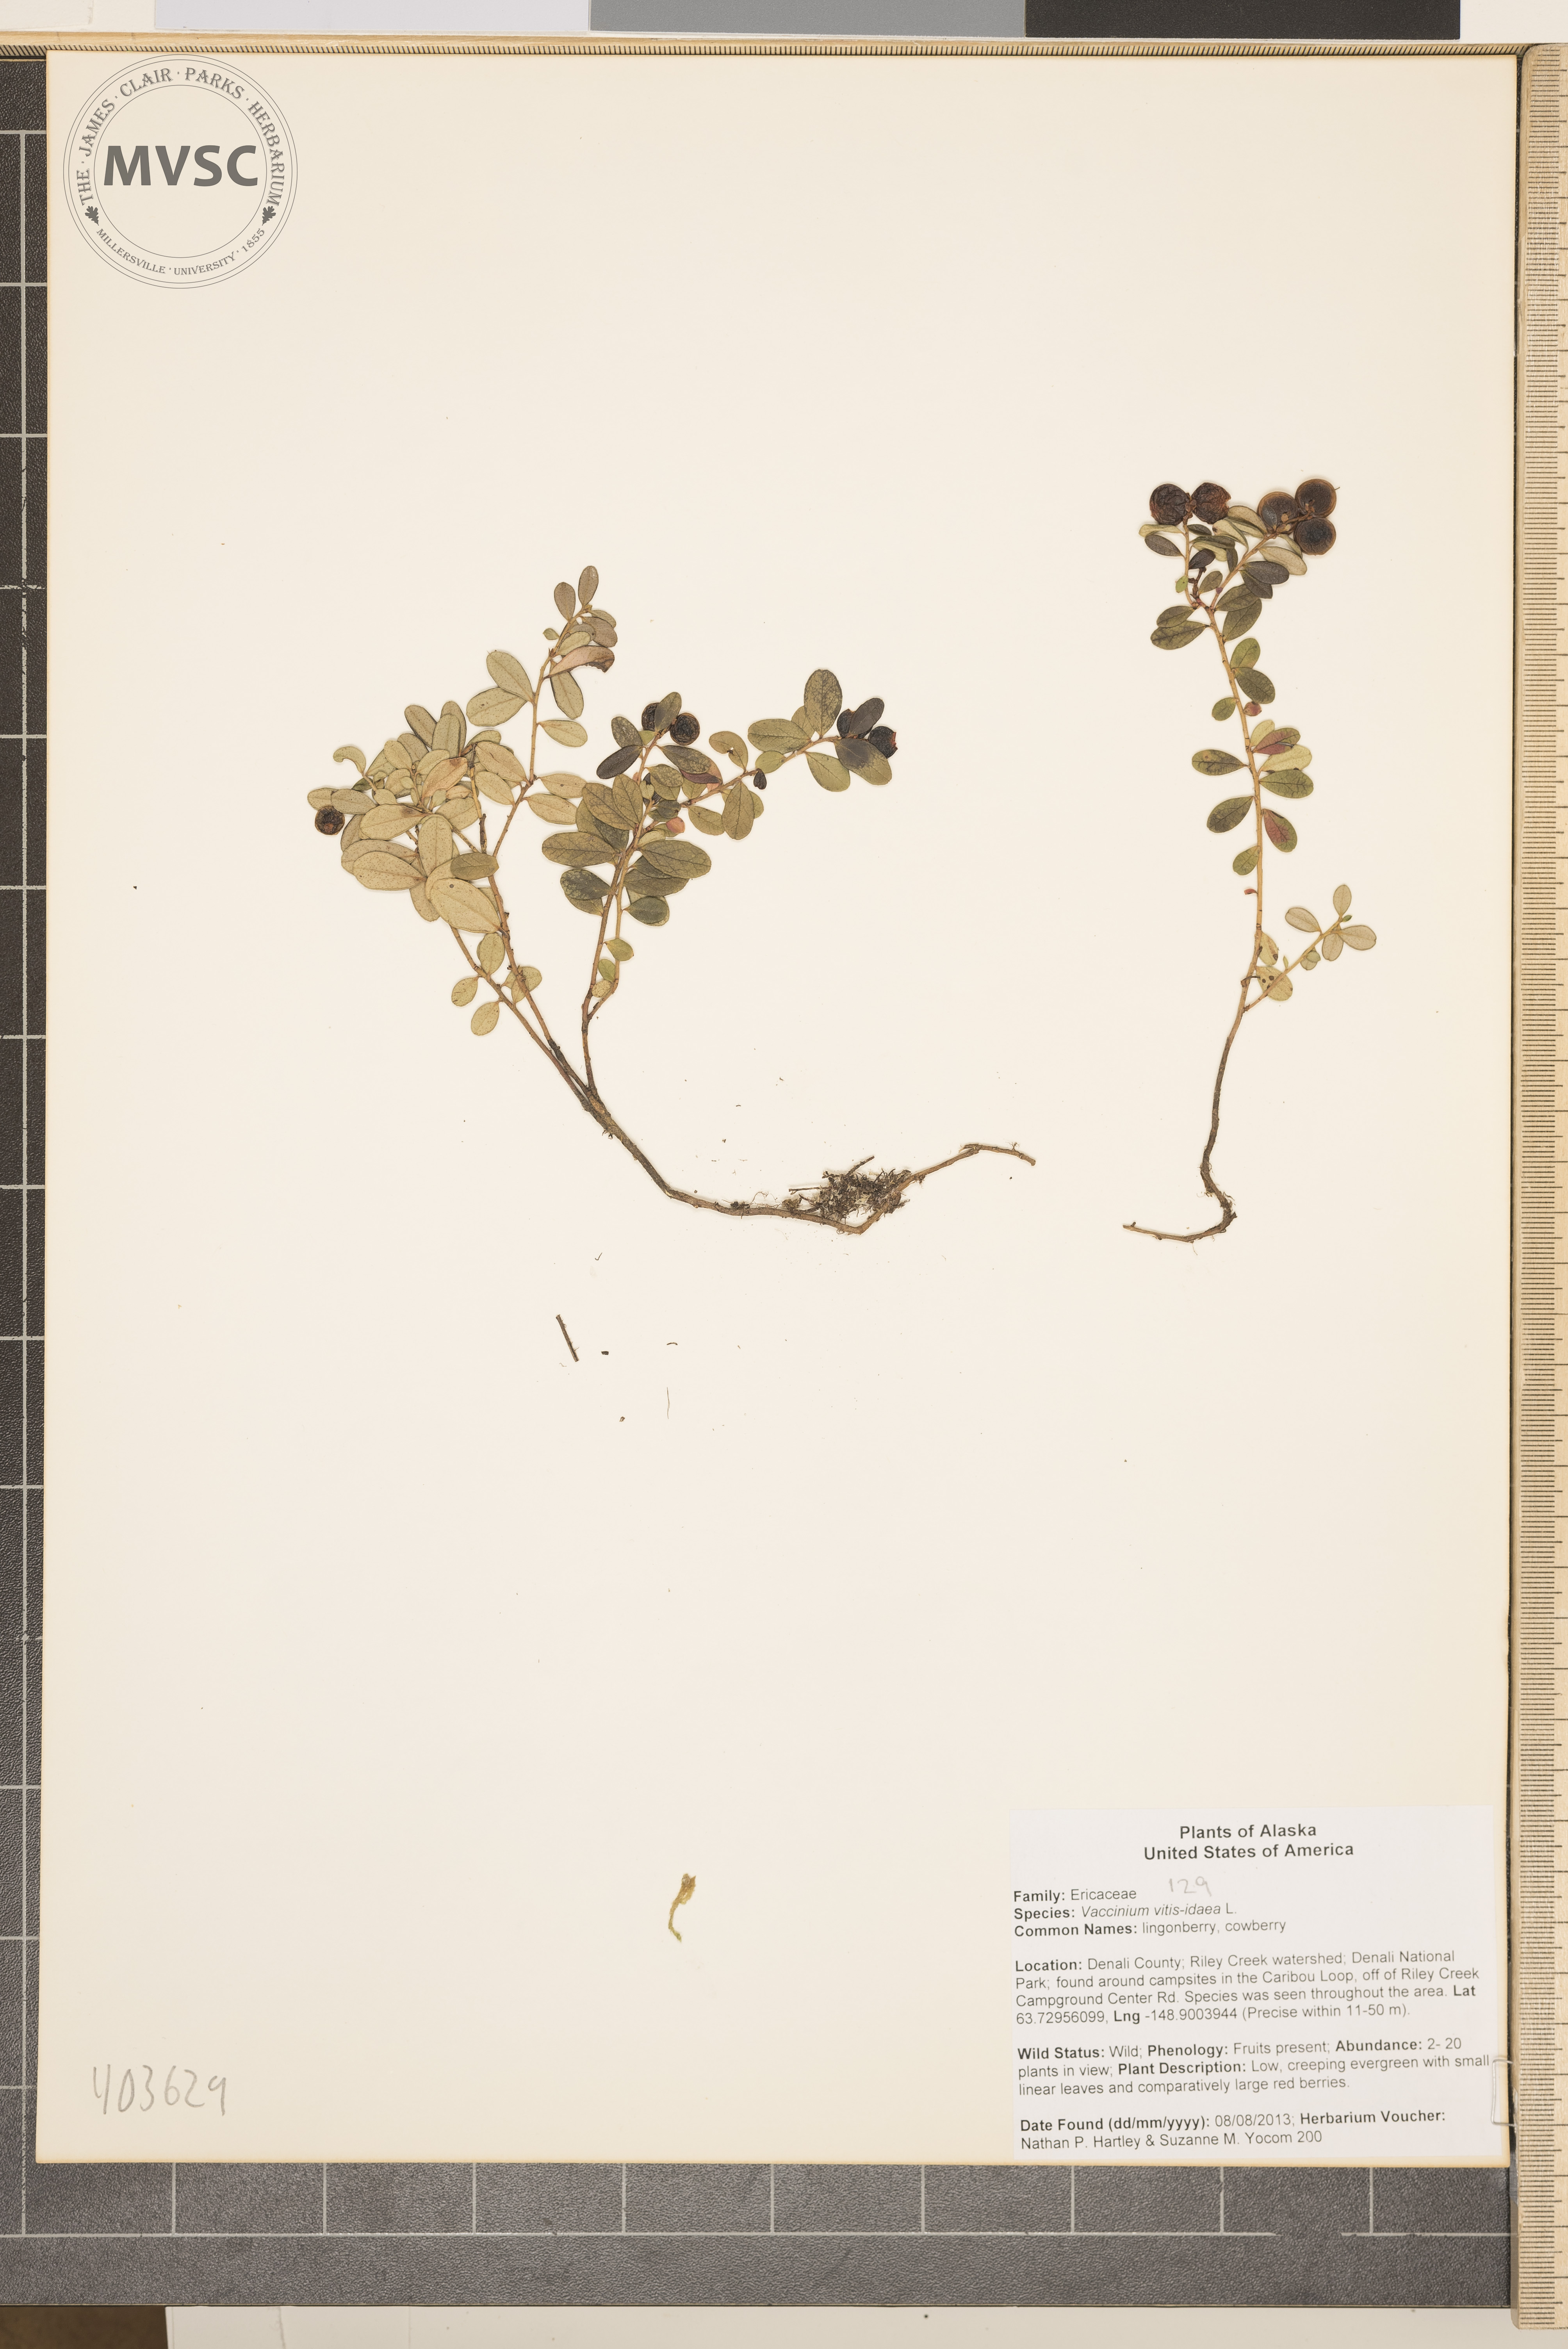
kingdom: Plantae
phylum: Tracheophyta
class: Magnoliopsida
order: Ericales
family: Ericaceae
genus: Vaccinium
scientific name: Vaccinium vitis-idaea
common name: cranberry
